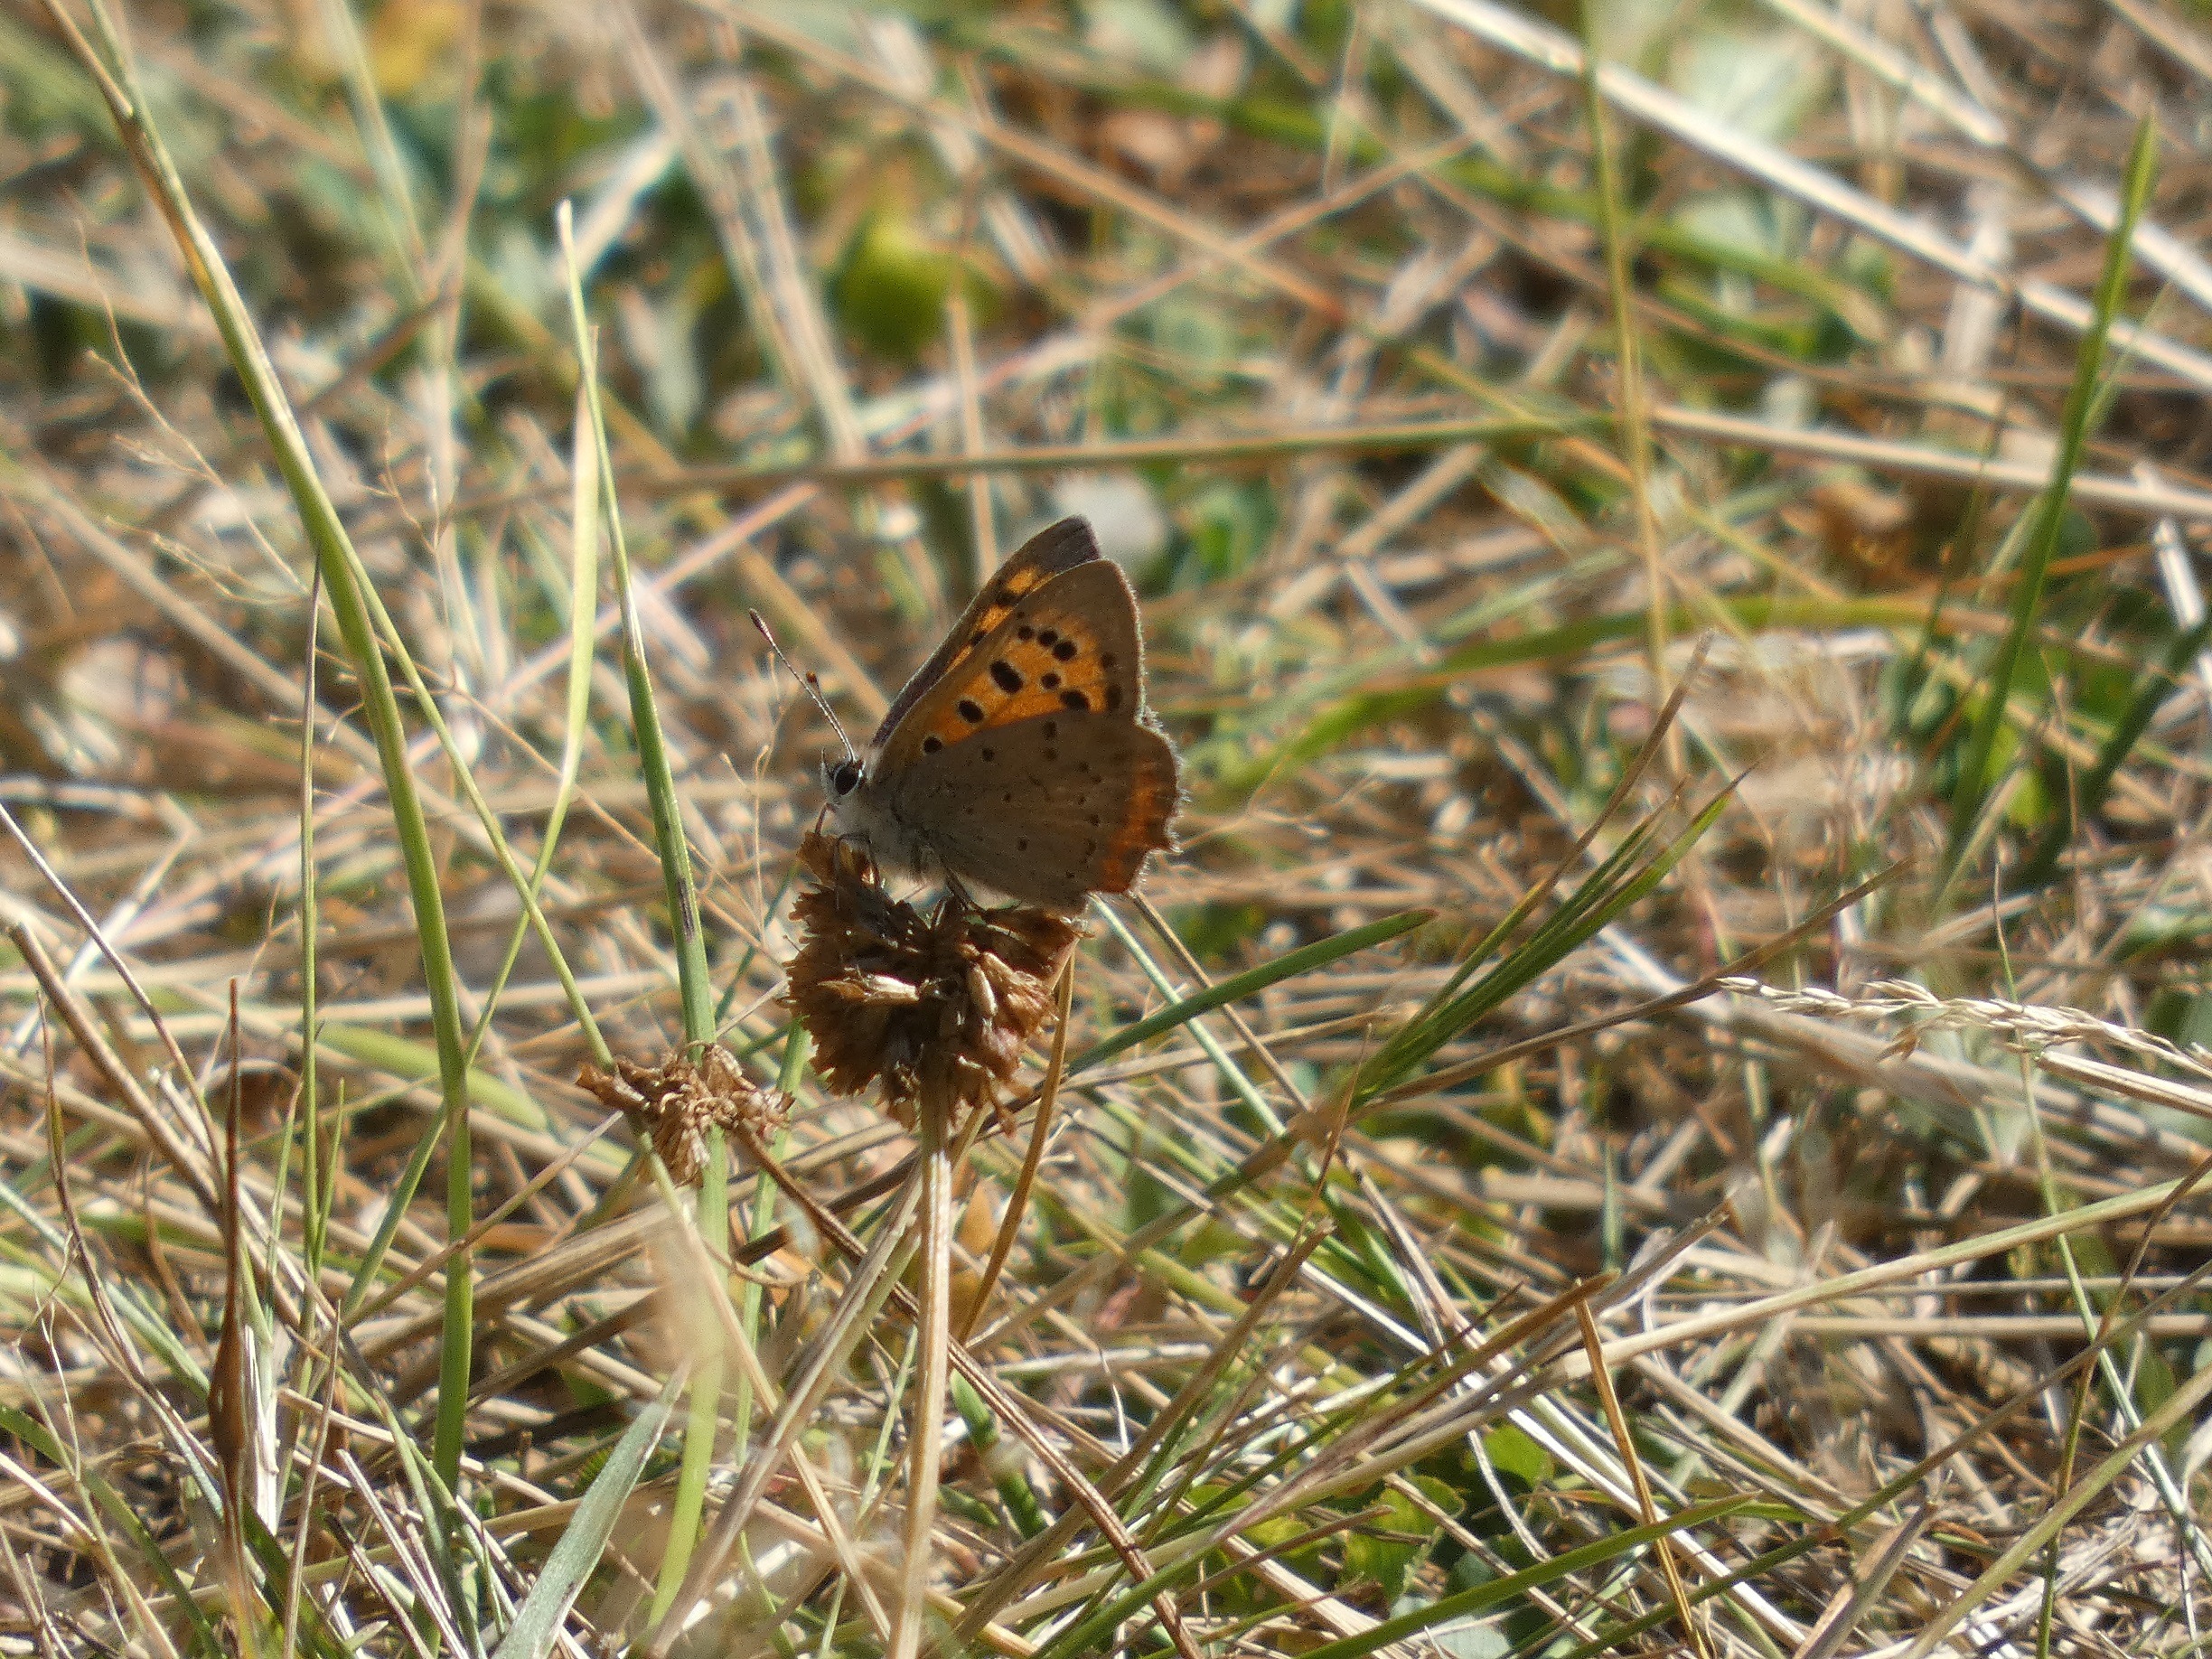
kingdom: Animalia
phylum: Arthropoda
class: Insecta
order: Lepidoptera
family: Lycaenidae
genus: Lycaena
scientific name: Lycaena phlaeas
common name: Lille ildfugl
